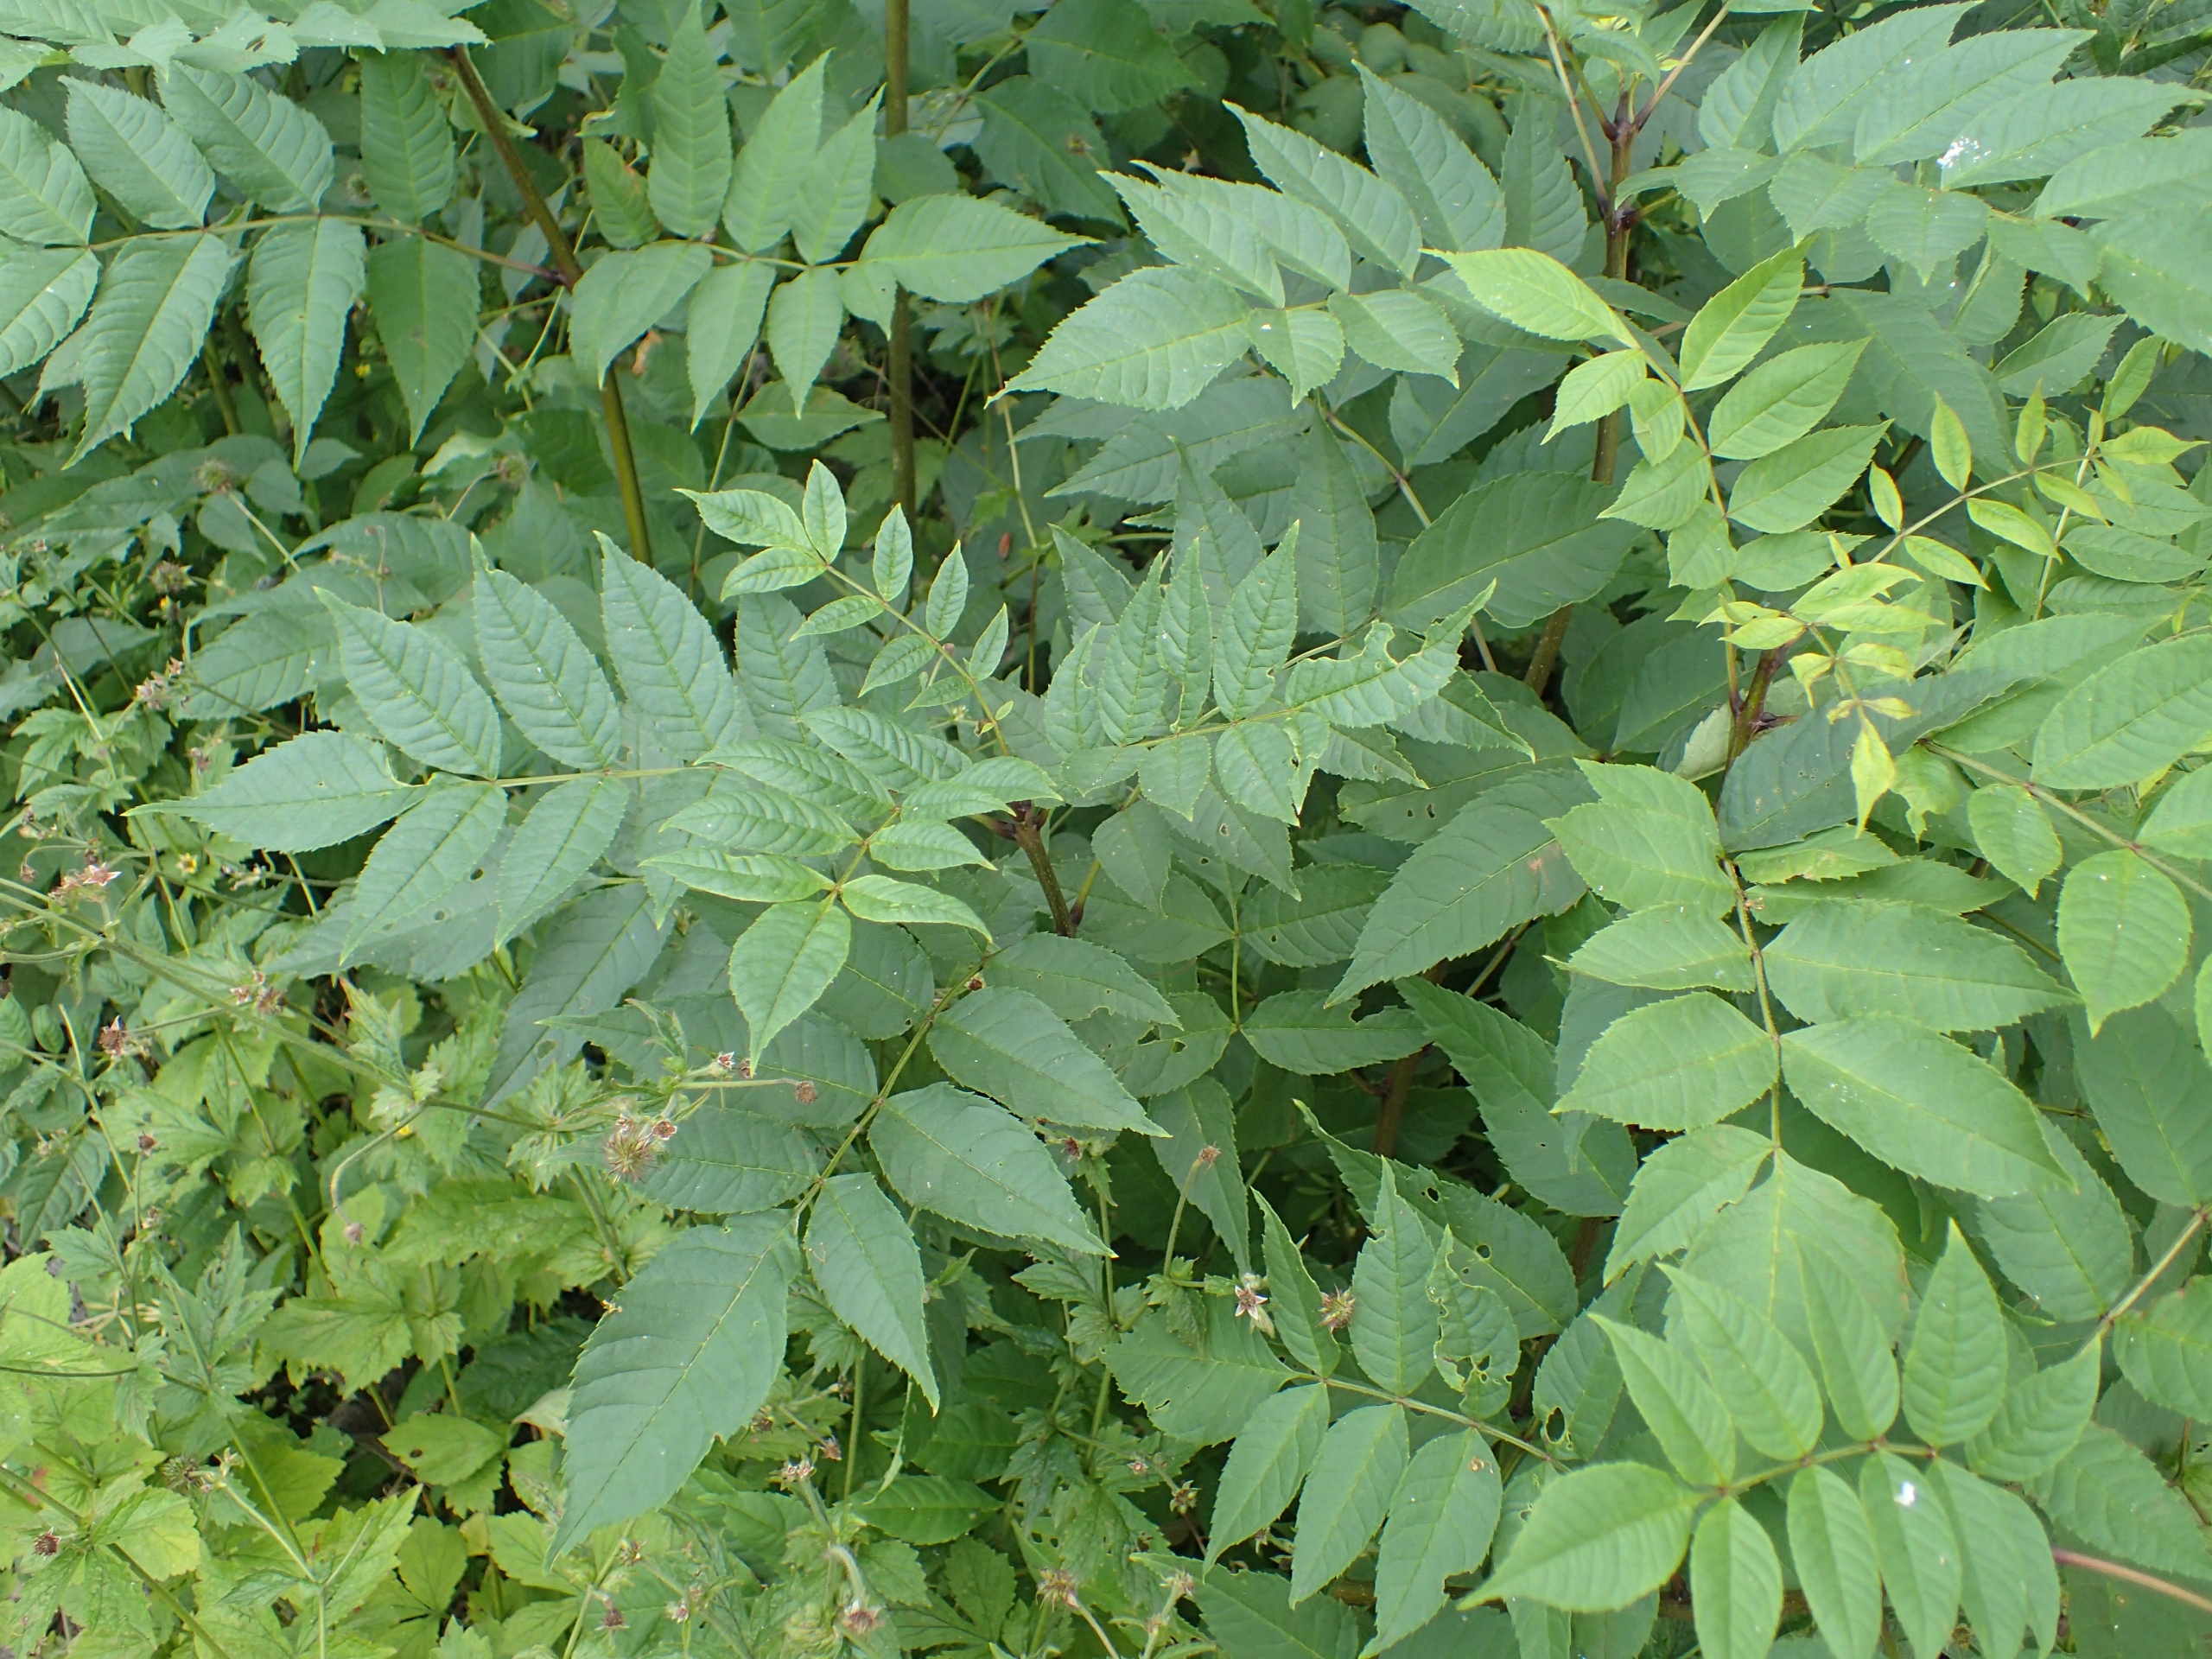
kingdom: Plantae
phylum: Tracheophyta
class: Magnoliopsida
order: Lamiales
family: Oleaceae
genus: Fraxinus
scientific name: Fraxinus excelsior
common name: Ask
